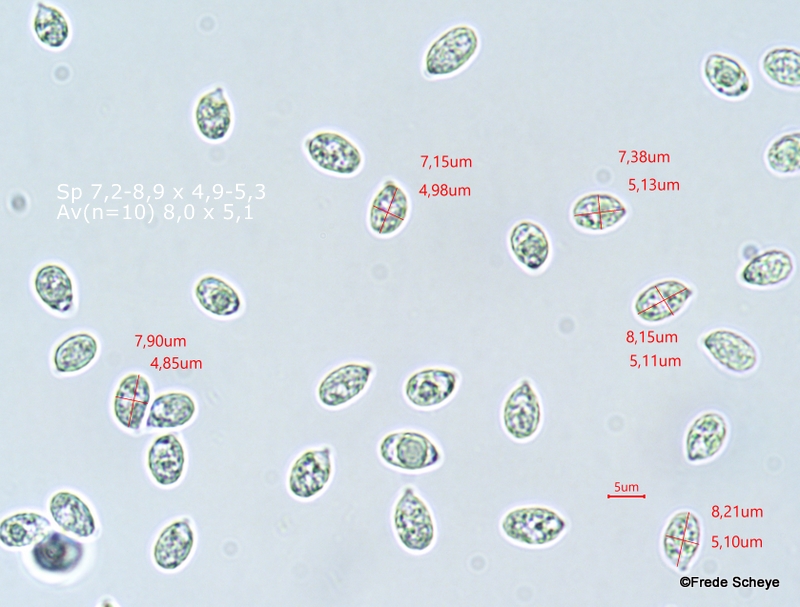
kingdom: Fungi
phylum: Basidiomycota
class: Agaricomycetes
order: Agaricales
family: Hygrophoraceae
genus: Cuphophyllus
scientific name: Cuphophyllus virgineus
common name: snehvid vokshat
